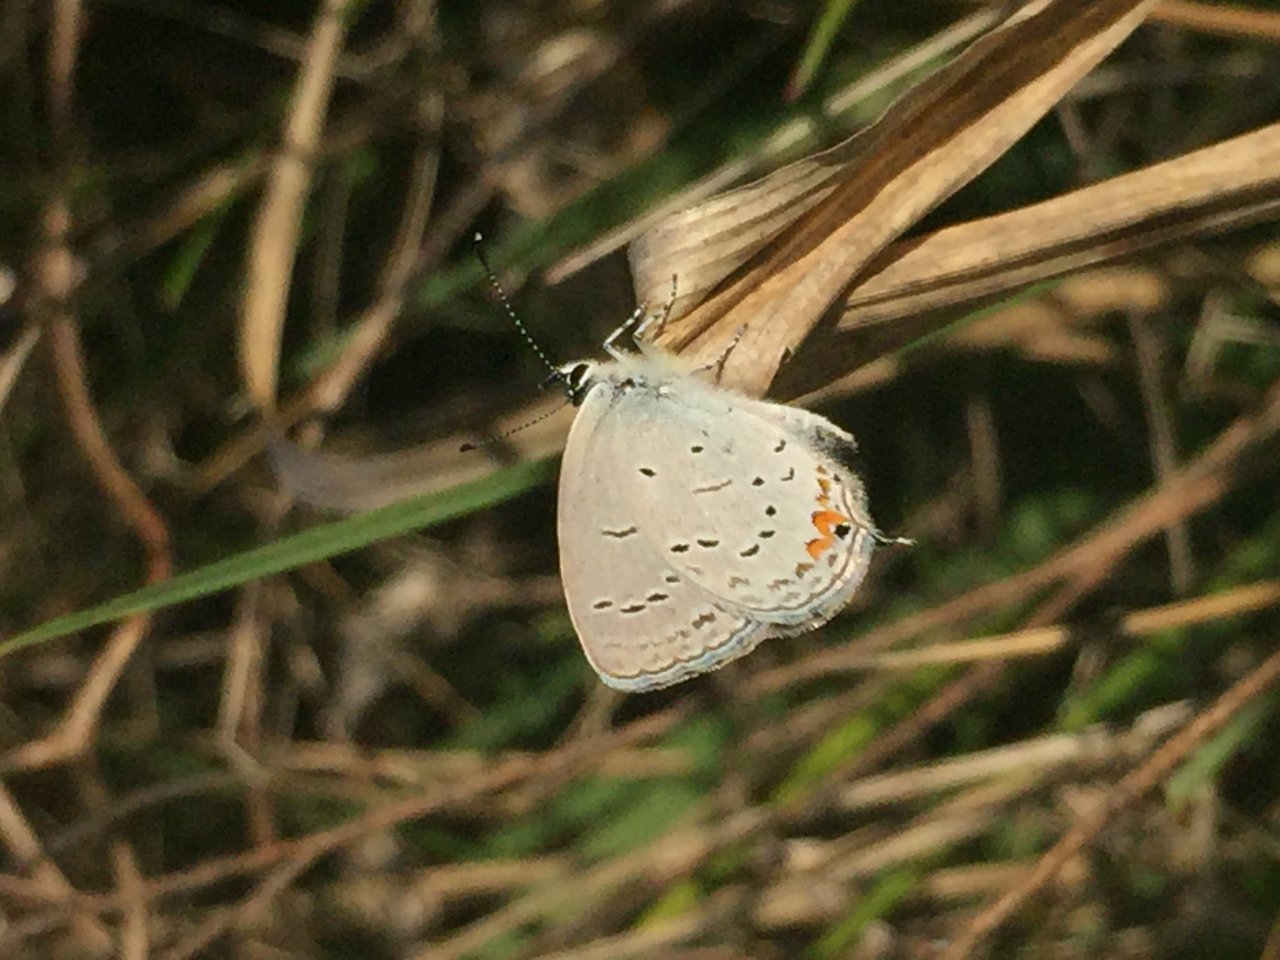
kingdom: Animalia
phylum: Arthropoda
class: Insecta
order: Lepidoptera
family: Lycaenidae
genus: Elkalyce
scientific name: Elkalyce comyntas
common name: Eastern Tailed-Blue
